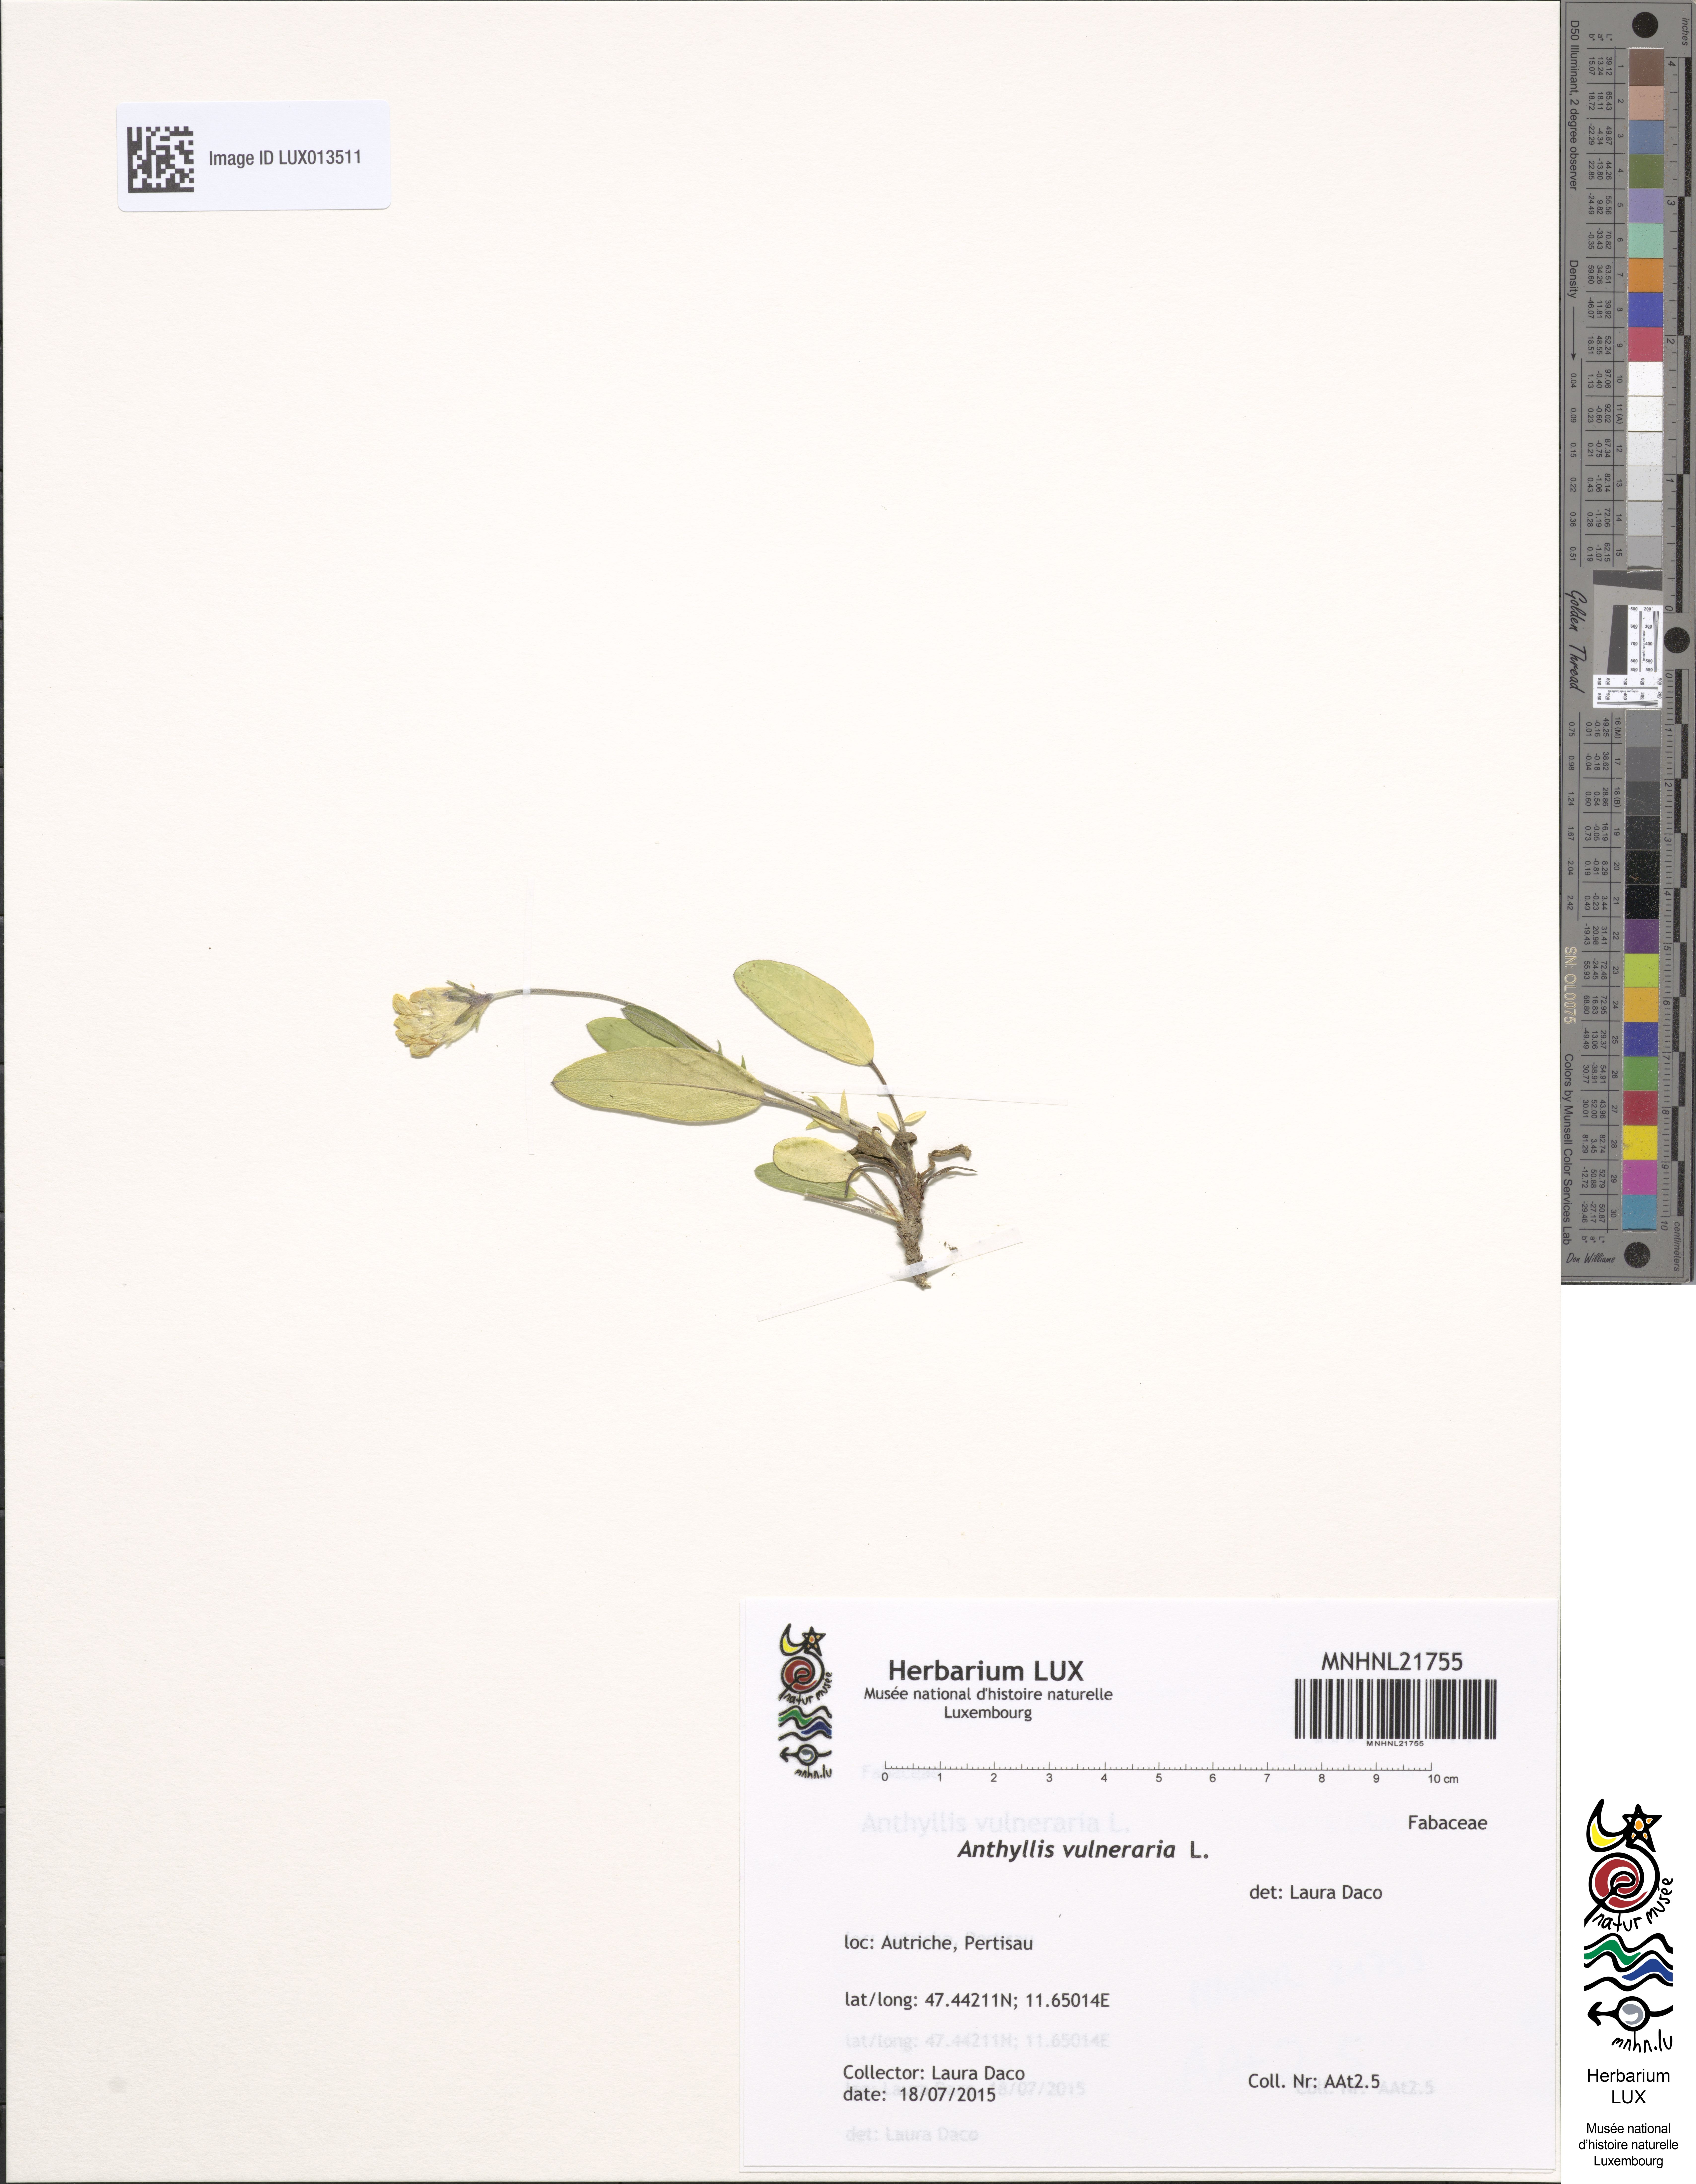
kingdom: Plantae
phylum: Tracheophyta
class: Magnoliopsida
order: Fabales
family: Fabaceae
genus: Anthyllis
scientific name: Anthyllis vulneraria
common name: Kidney vetch
